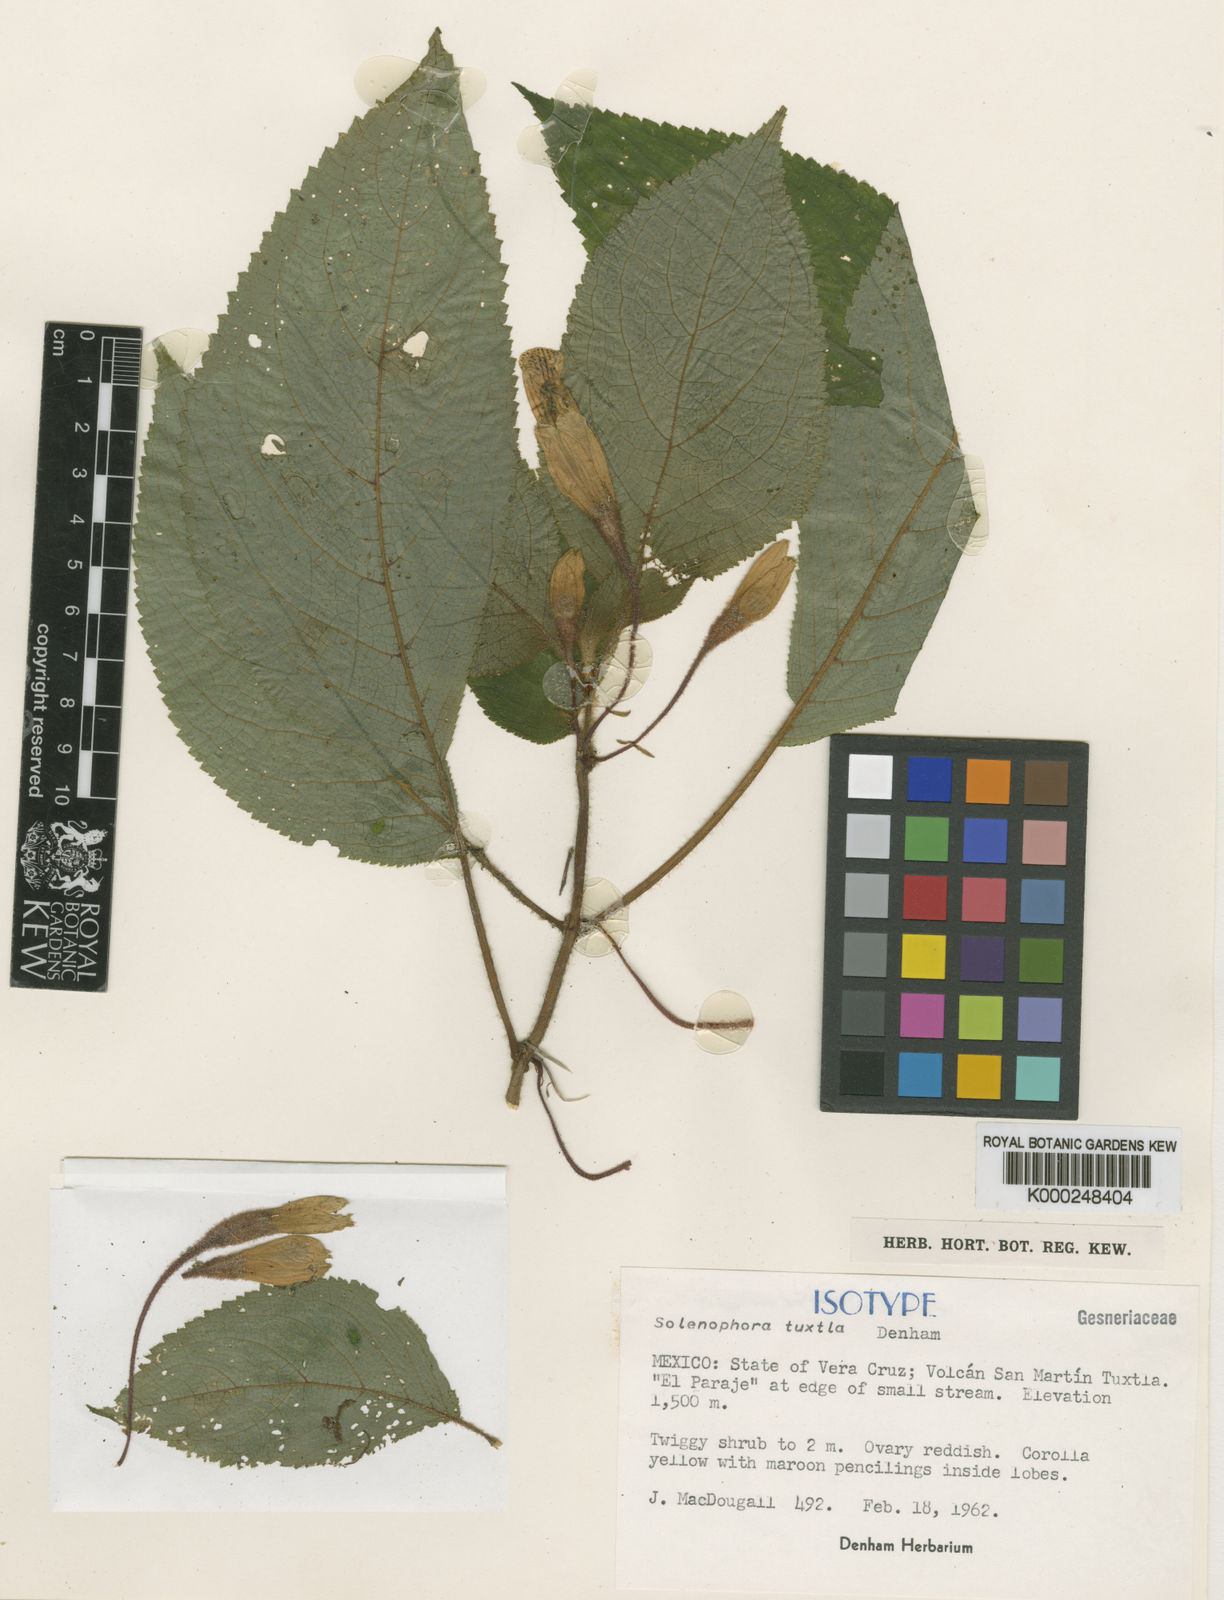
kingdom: Plantae
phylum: Tracheophyta
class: Magnoliopsida
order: Lamiales
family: Gesneriaceae
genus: Solenophora
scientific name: Solenophora
